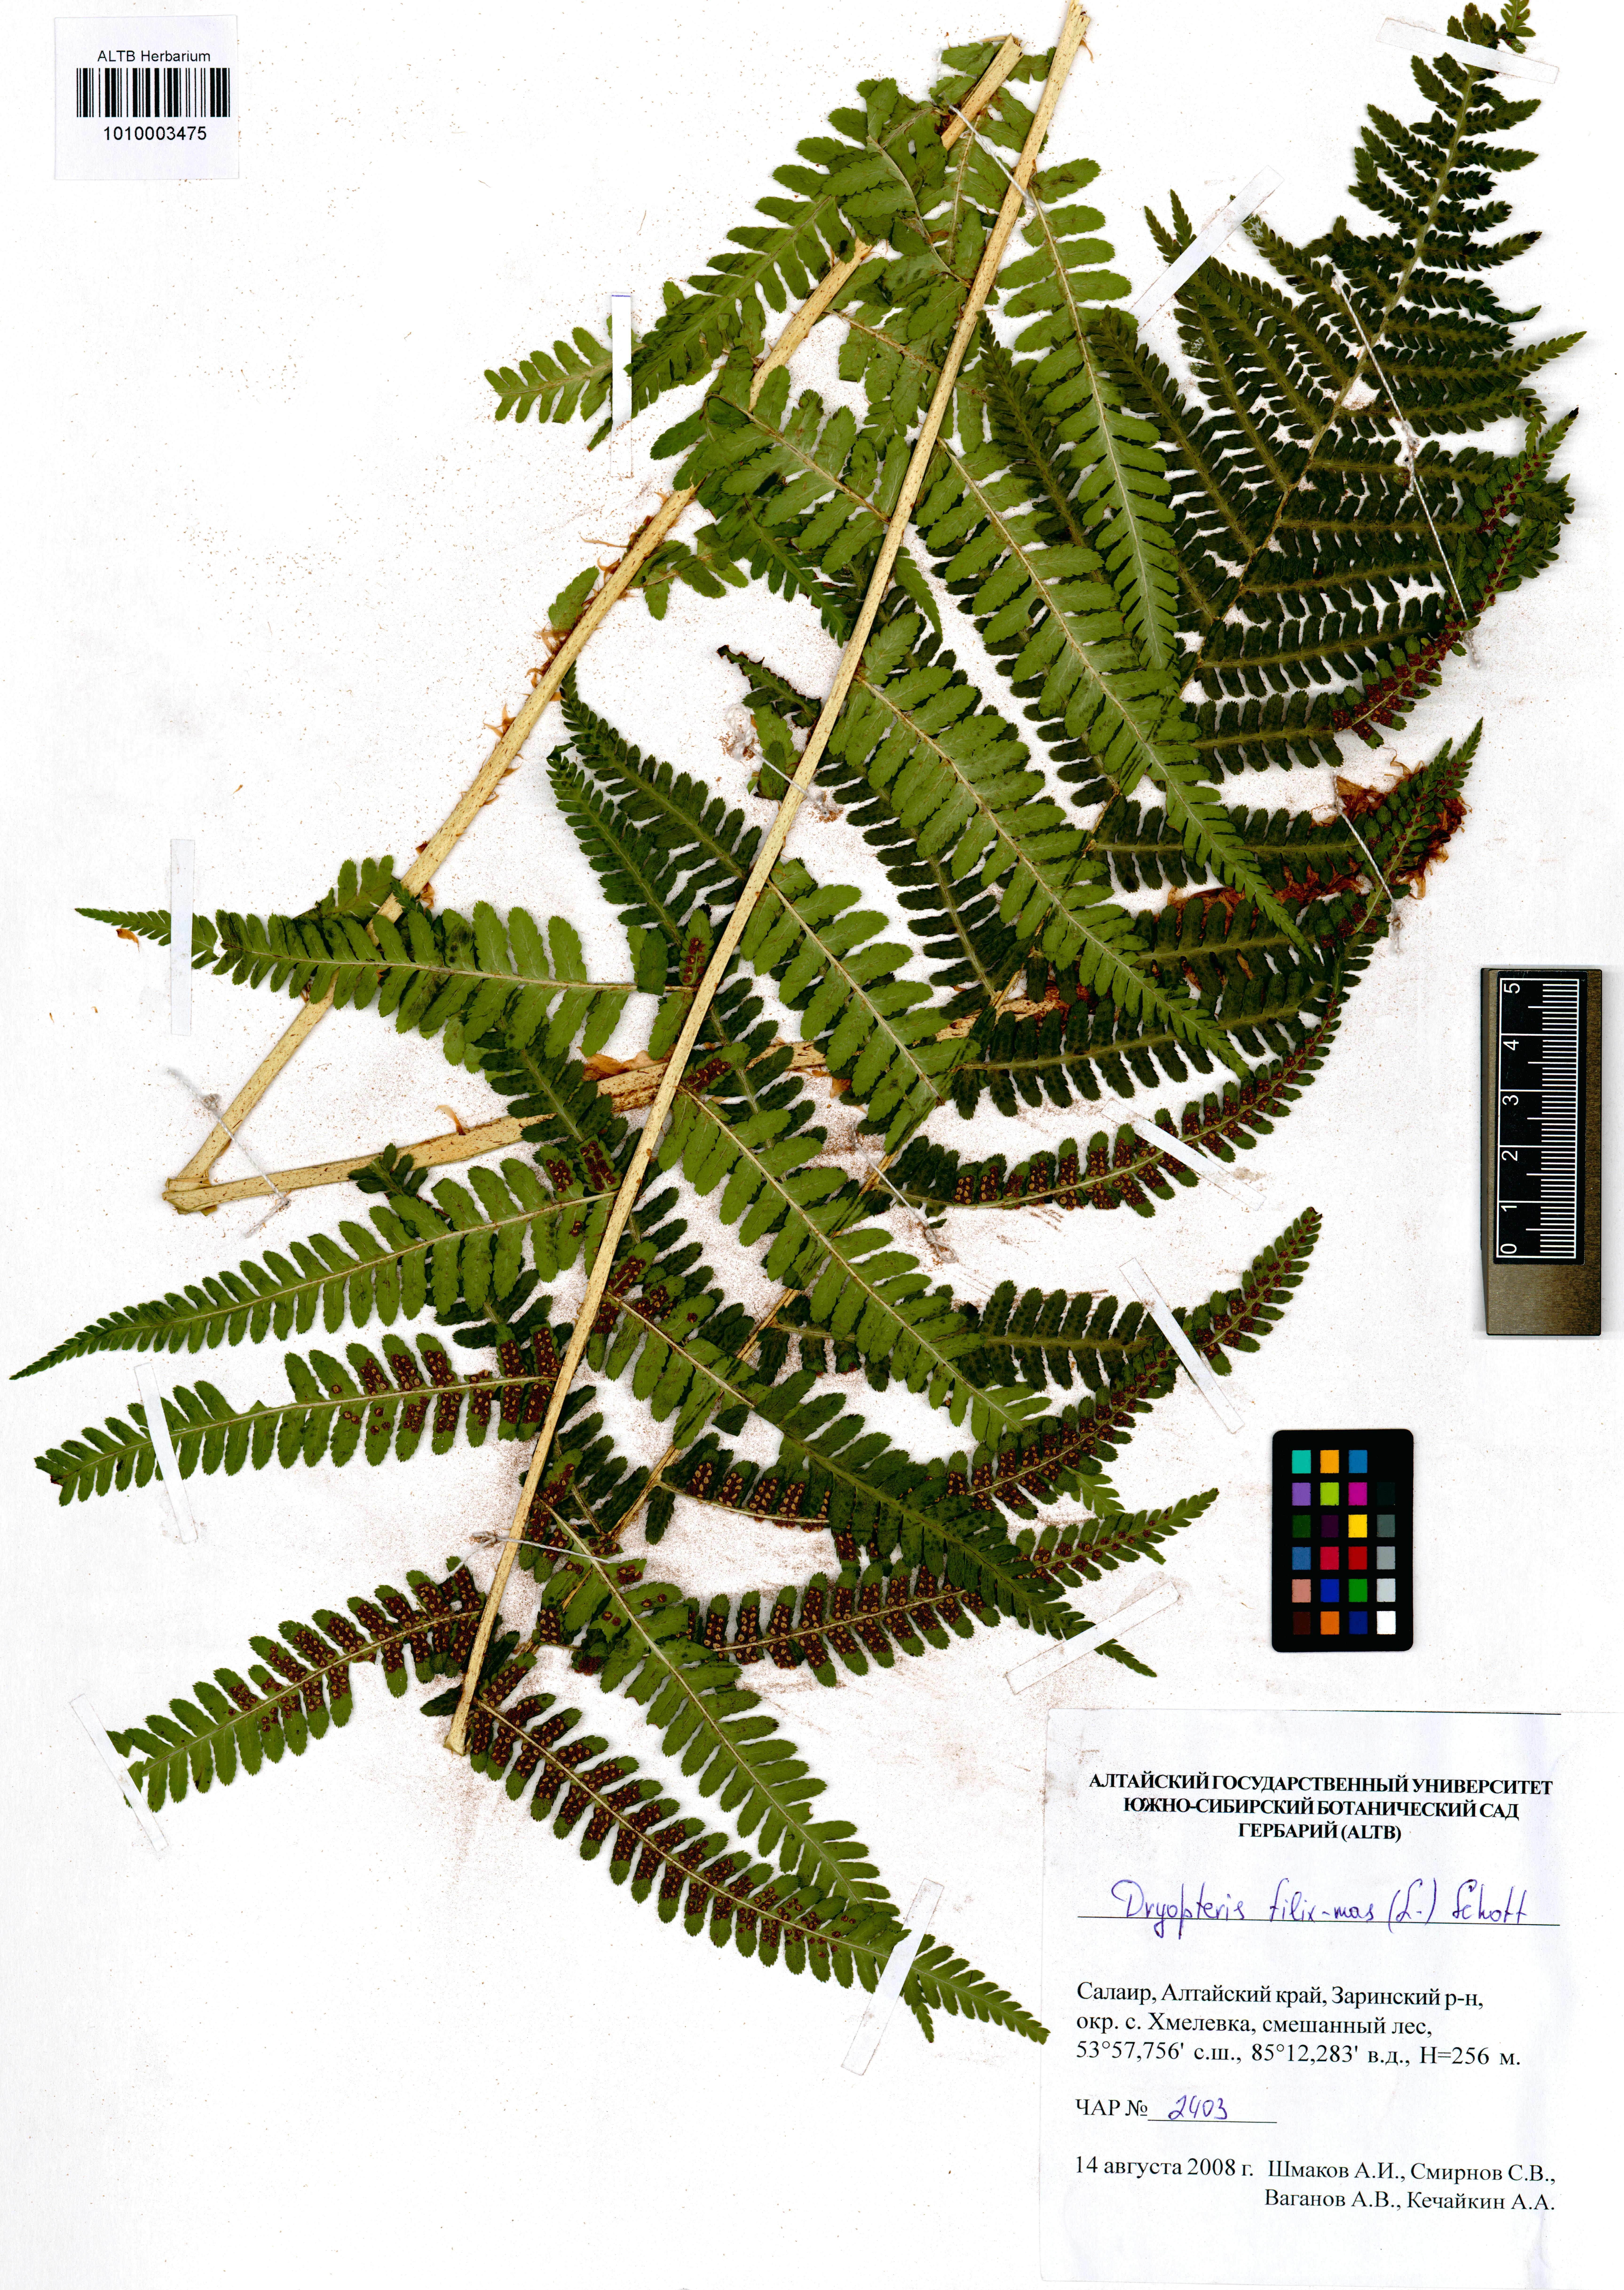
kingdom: Plantae
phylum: Tracheophyta
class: Polypodiopsida
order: Polypodiales
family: Dryopteridaceae
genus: Dryopteris
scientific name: Dryopteris filix-mas
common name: Male fern
